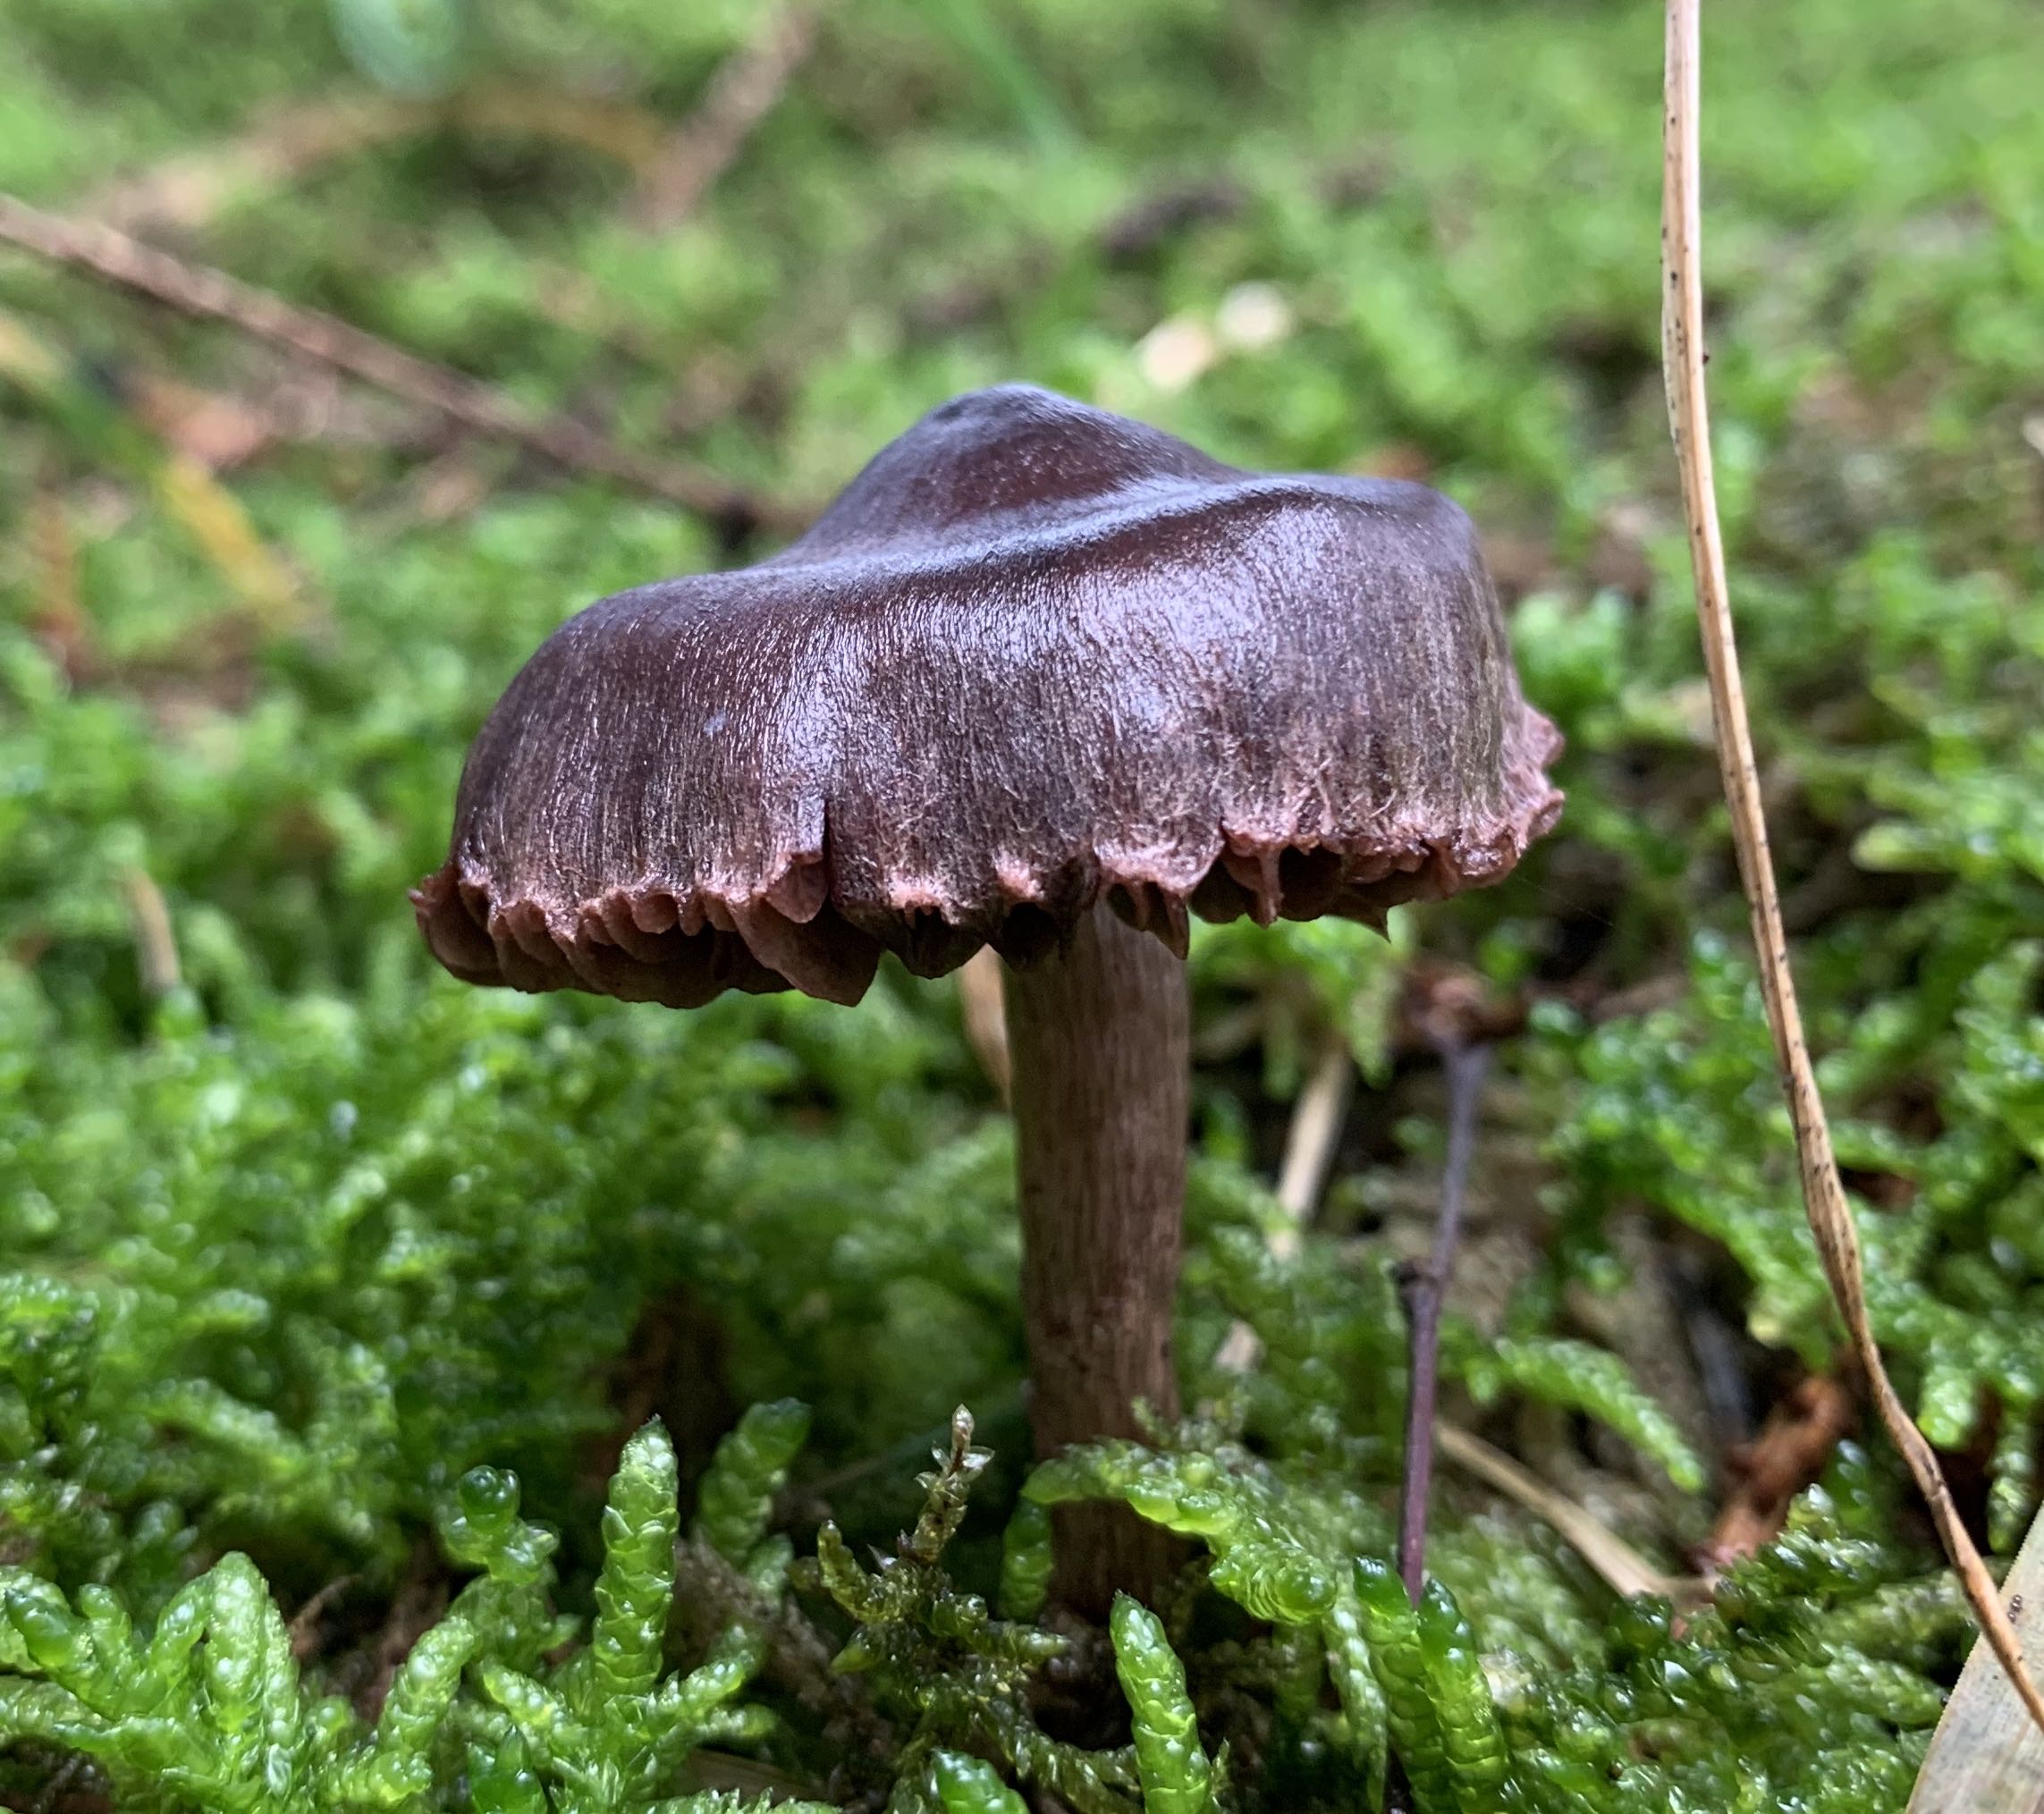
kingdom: Fungi
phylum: Basidiomycota
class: Agaricomycetes
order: Agaricales
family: Cortinariaceae
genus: Cortinarius
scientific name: Cortinarius
